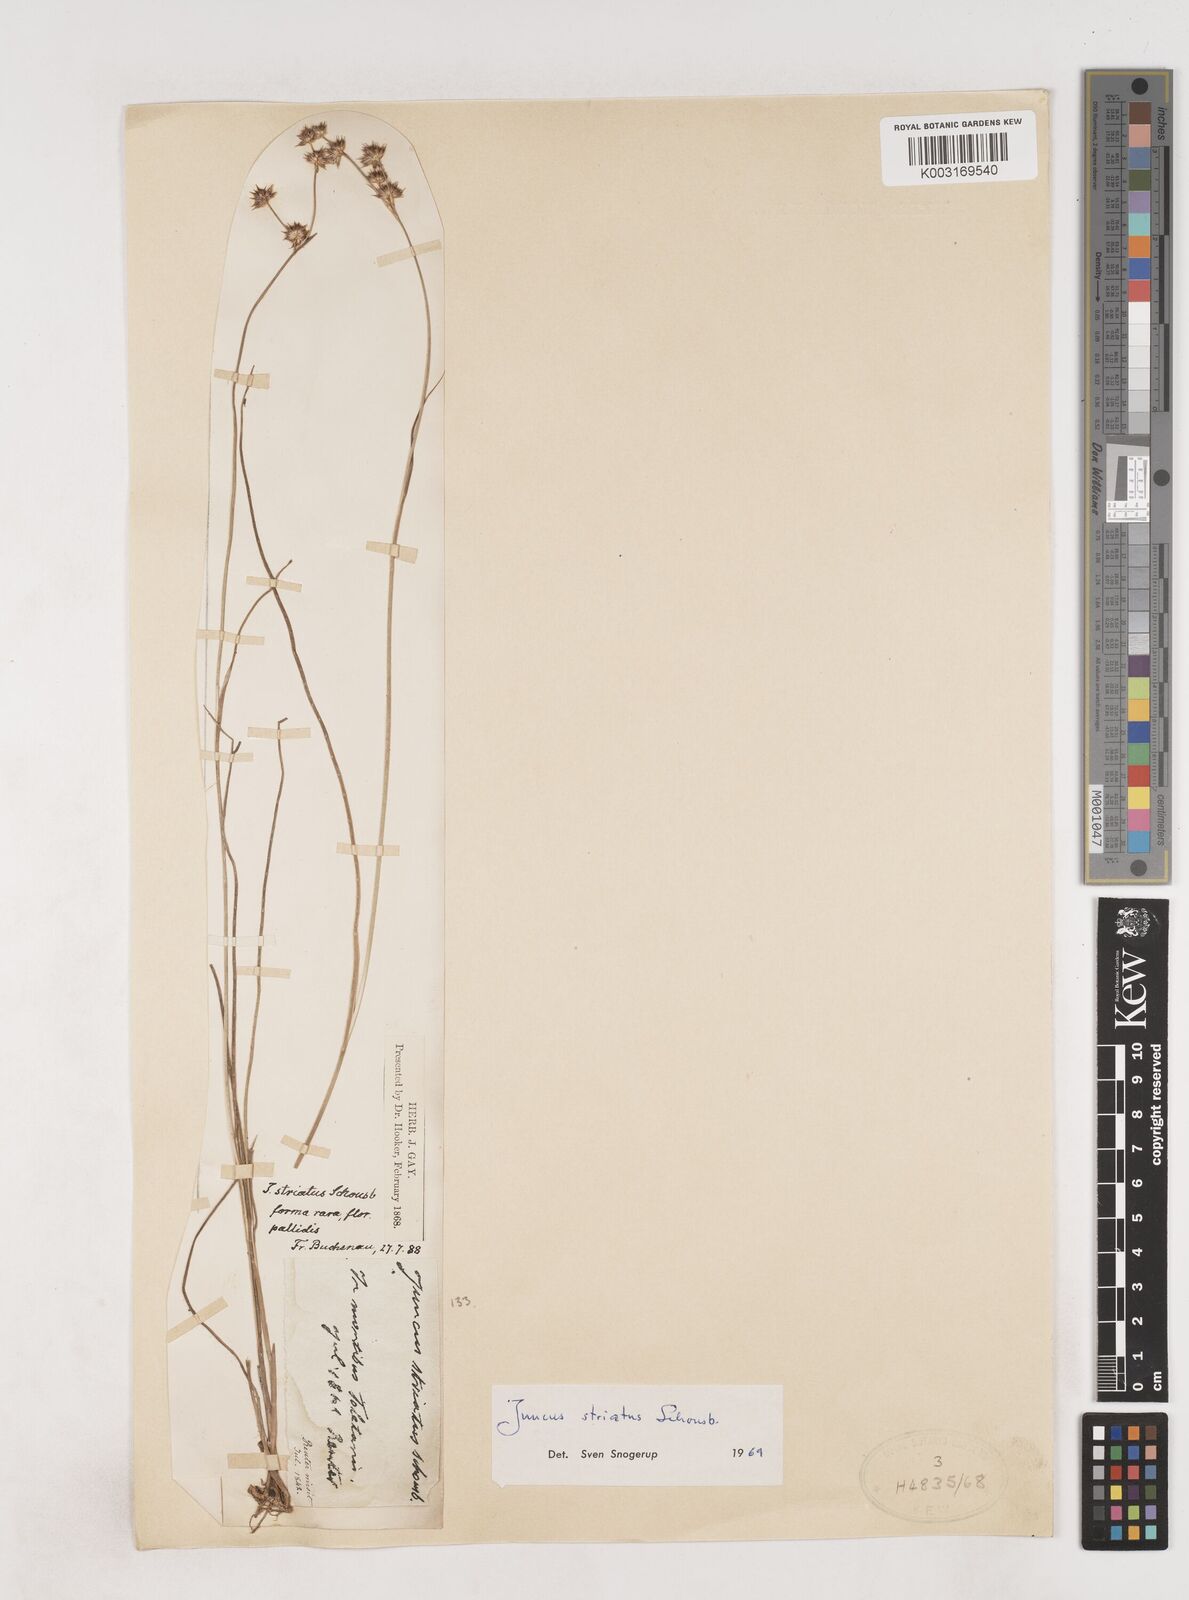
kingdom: Plantae
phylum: Tracheophyta
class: Liliopsida
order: Poales
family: Juncaceae
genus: Juncus
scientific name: Juncus striatus
